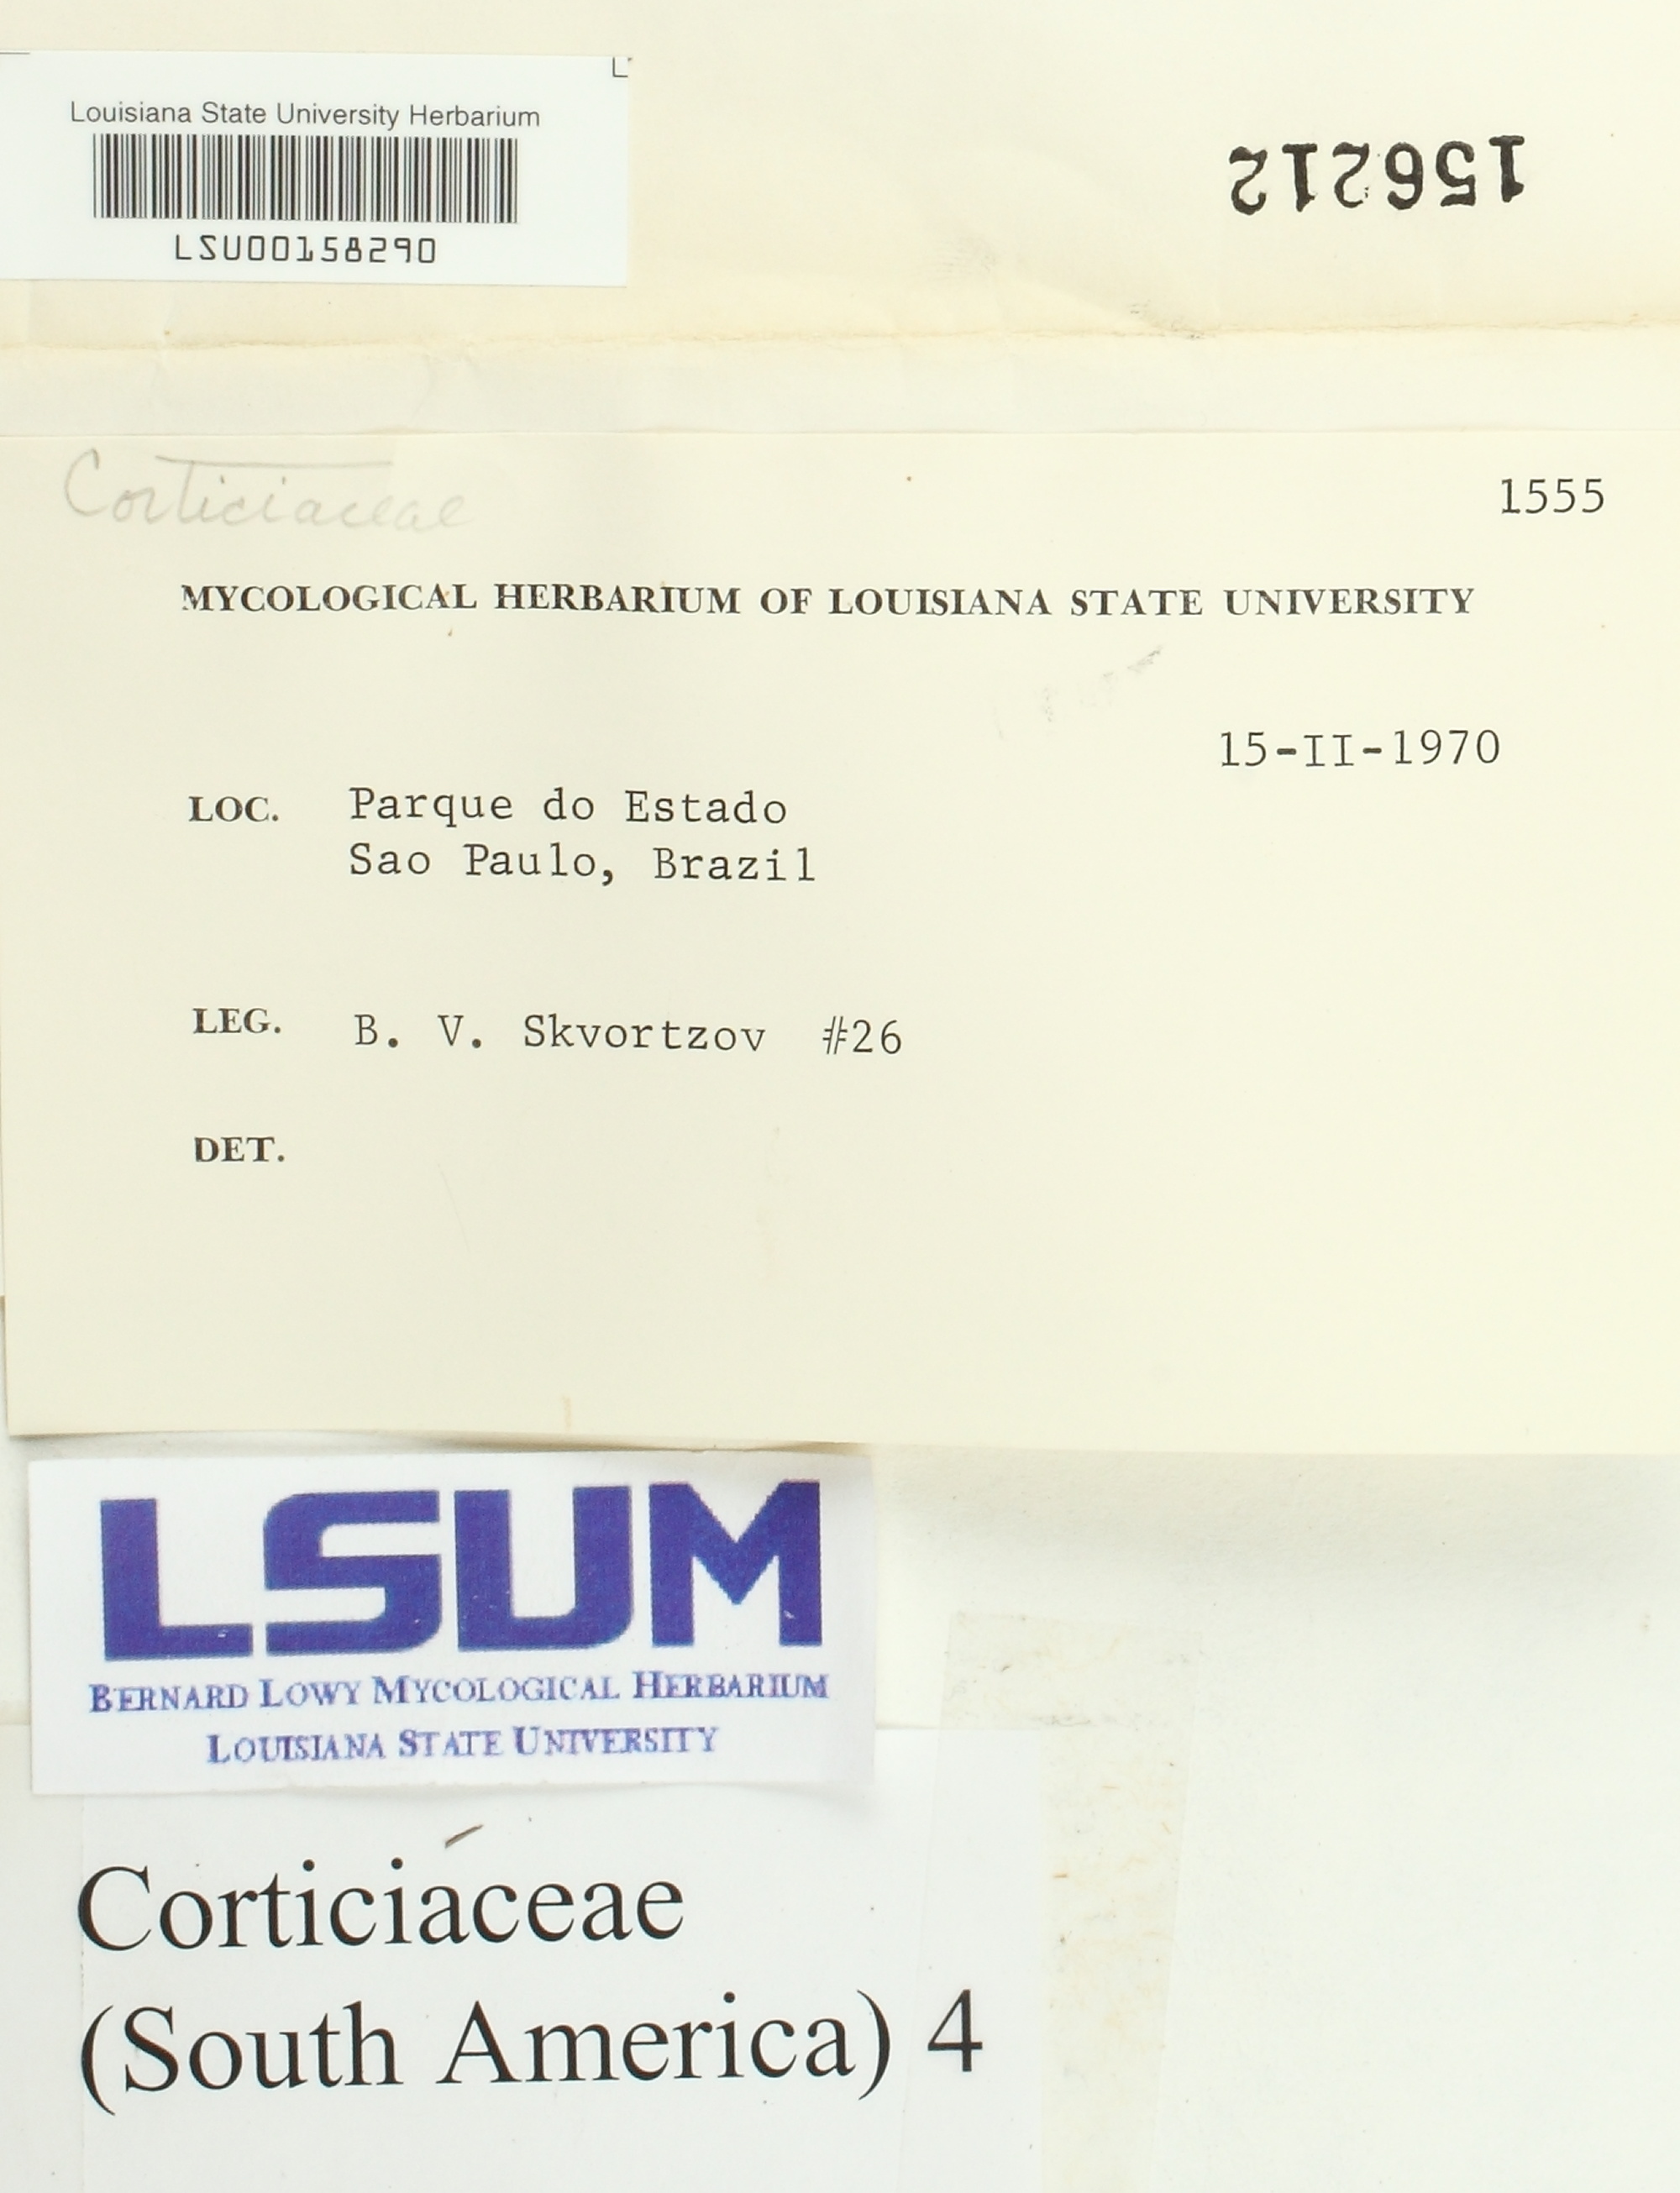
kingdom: Fungi
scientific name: Fungi
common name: Fungi
